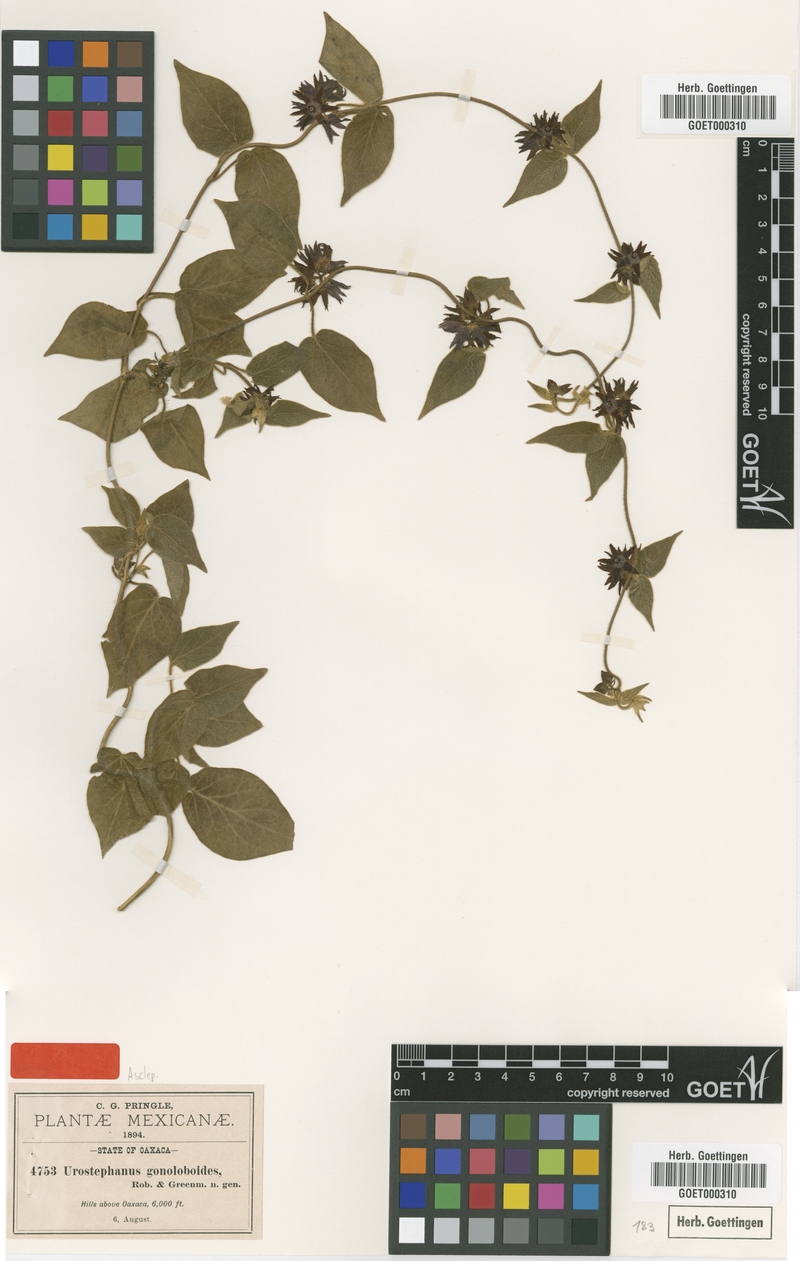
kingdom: Plantae
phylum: Tracheophyta
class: Magnoliopsida
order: Gentianales
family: Apocynaceae
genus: Matelea
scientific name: Matelea gonoloboides
